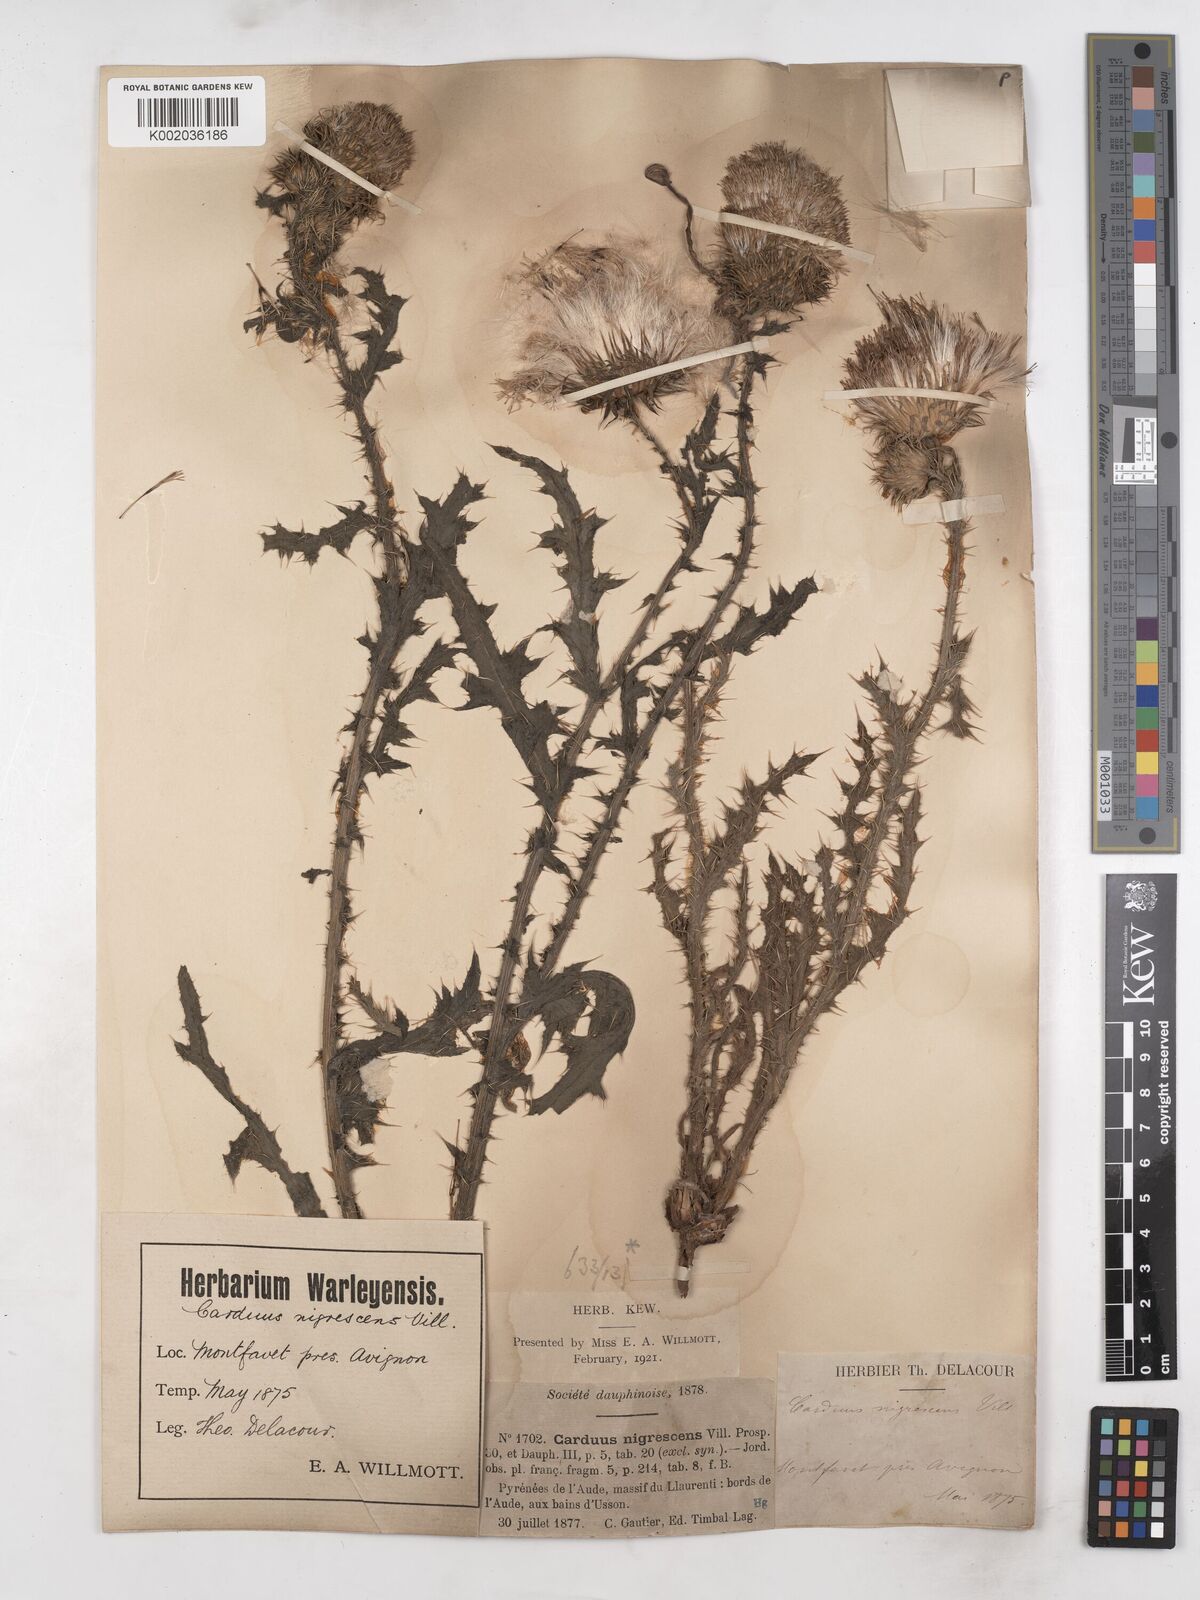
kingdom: Plantae
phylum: Tracheophyta
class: Magnoliopsida
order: Asterales
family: Asteraceae
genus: Carduus
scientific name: Carduus nigrescens
